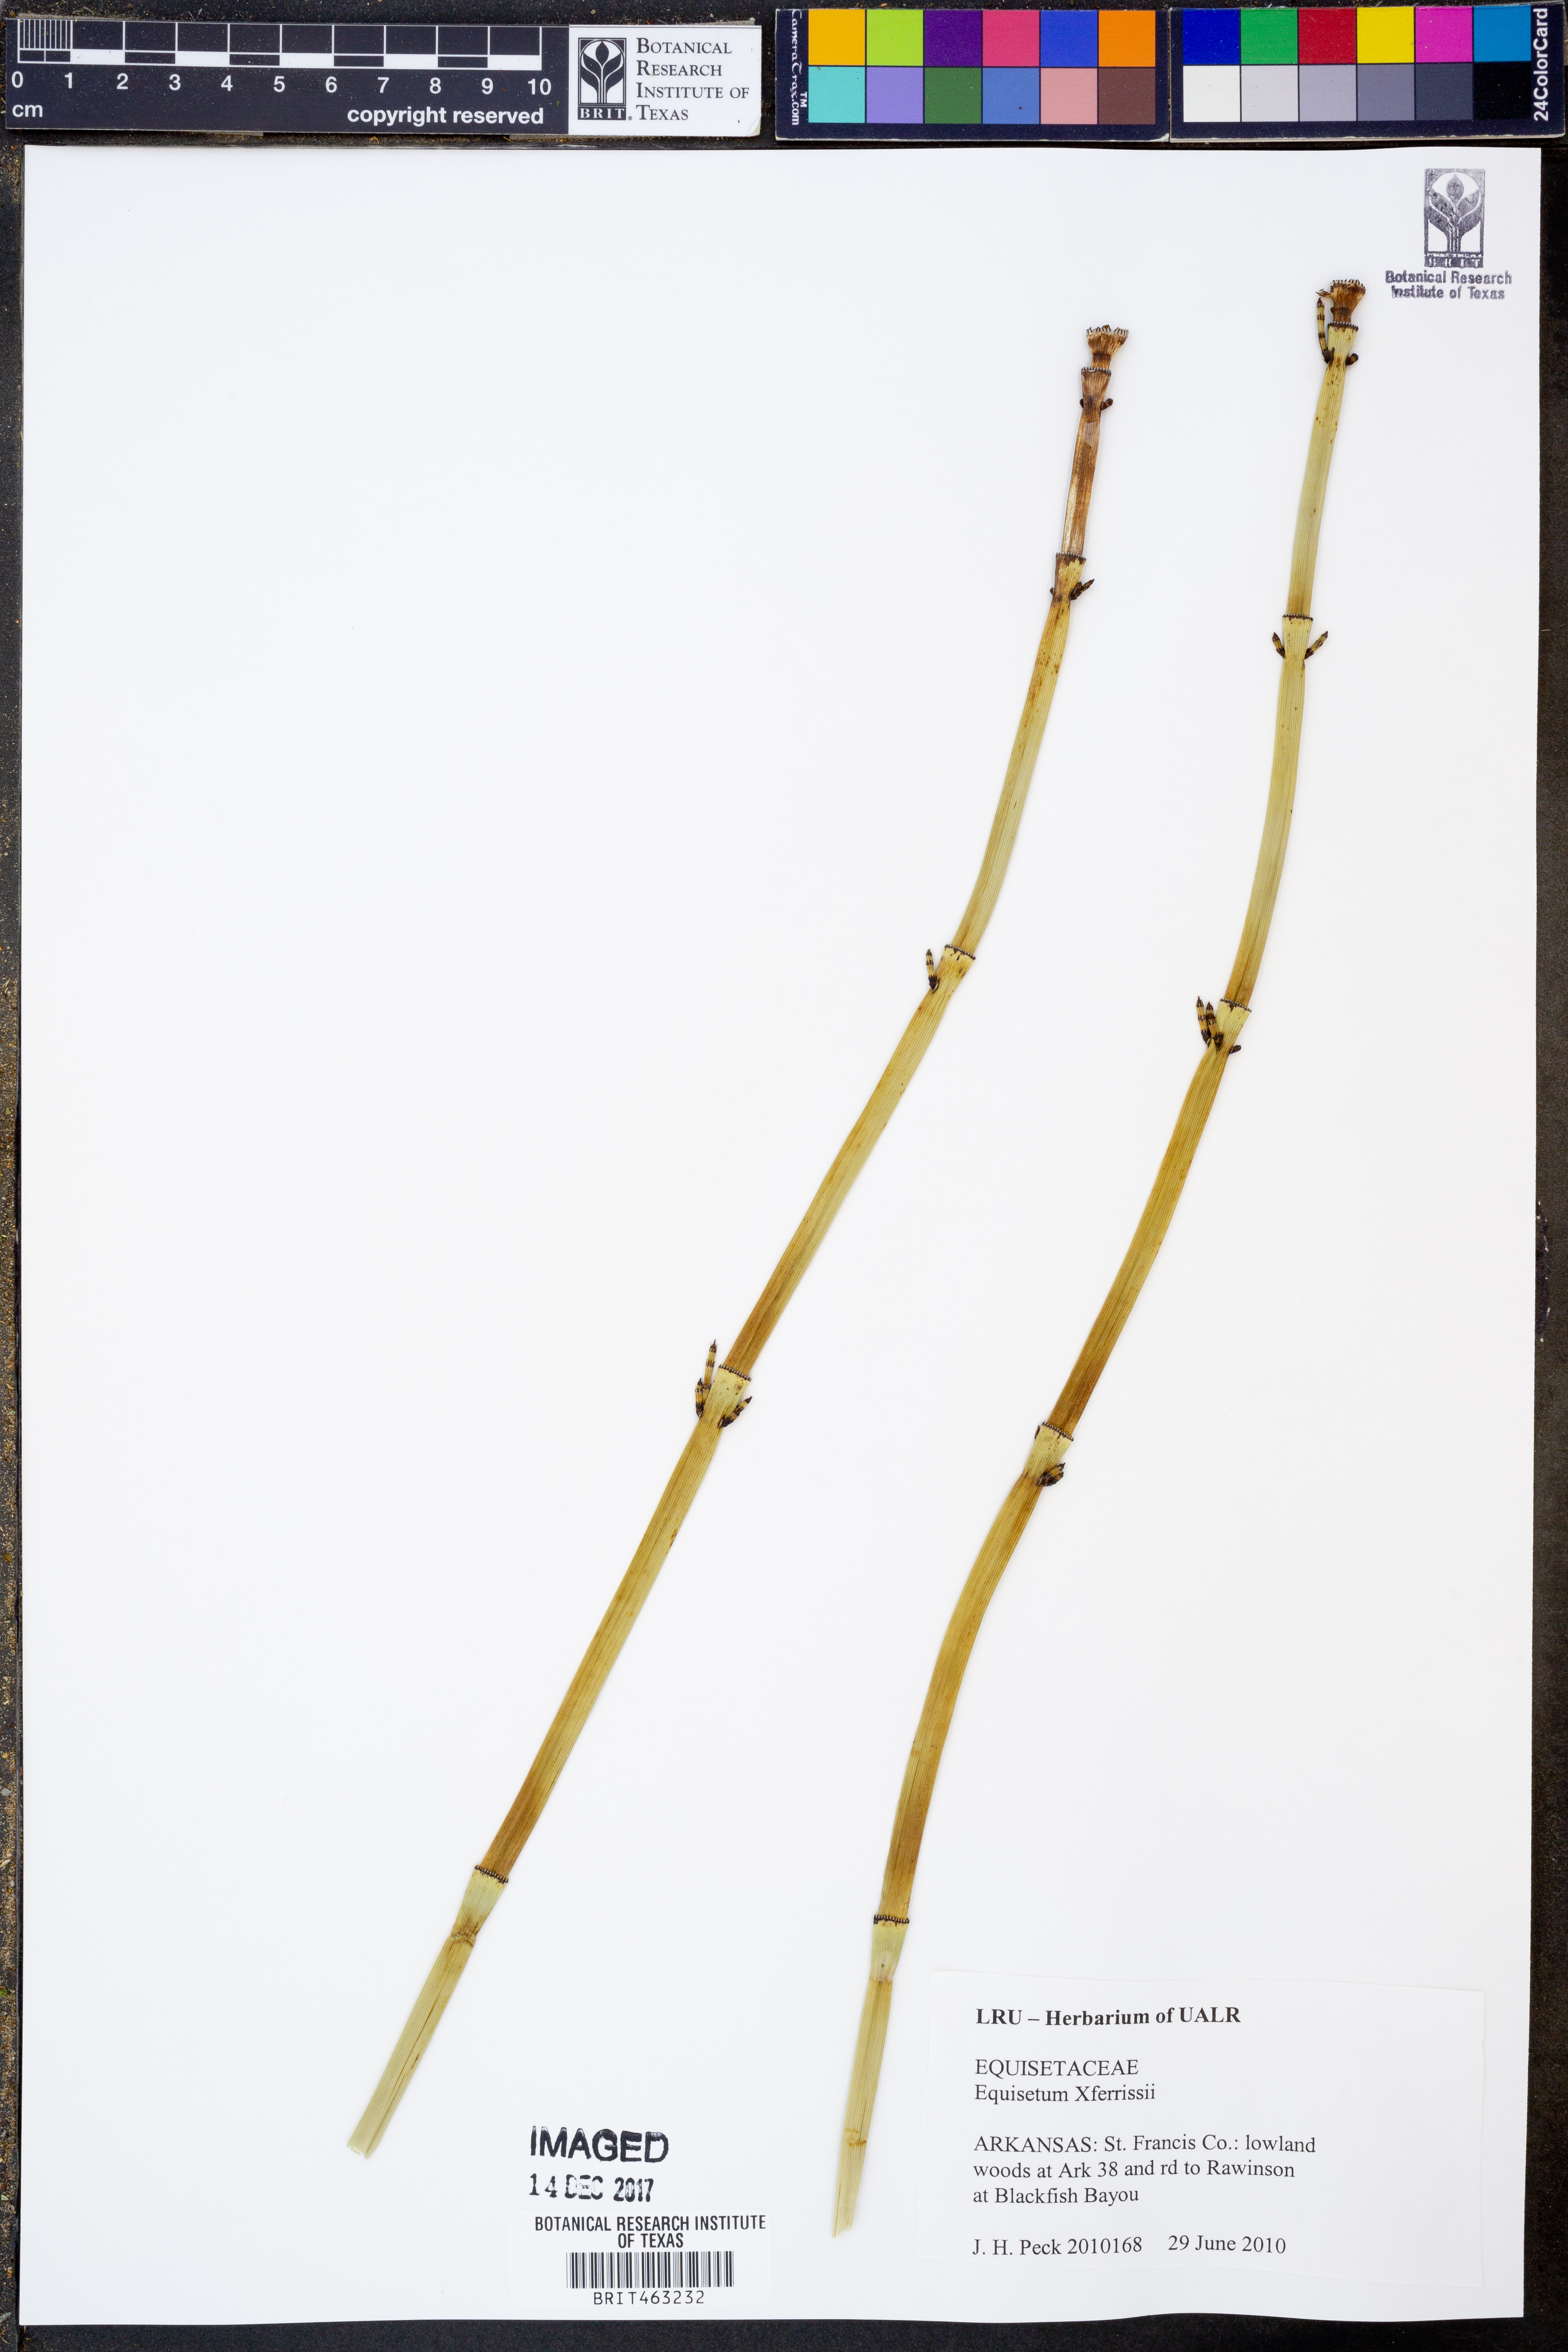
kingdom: Plantae
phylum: Tracheophyta
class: Polypodiopsida
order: Equisetales
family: Equisetaceae
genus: Equisetum
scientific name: Equisetum ferrissii
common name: Ferriss' horsetail
